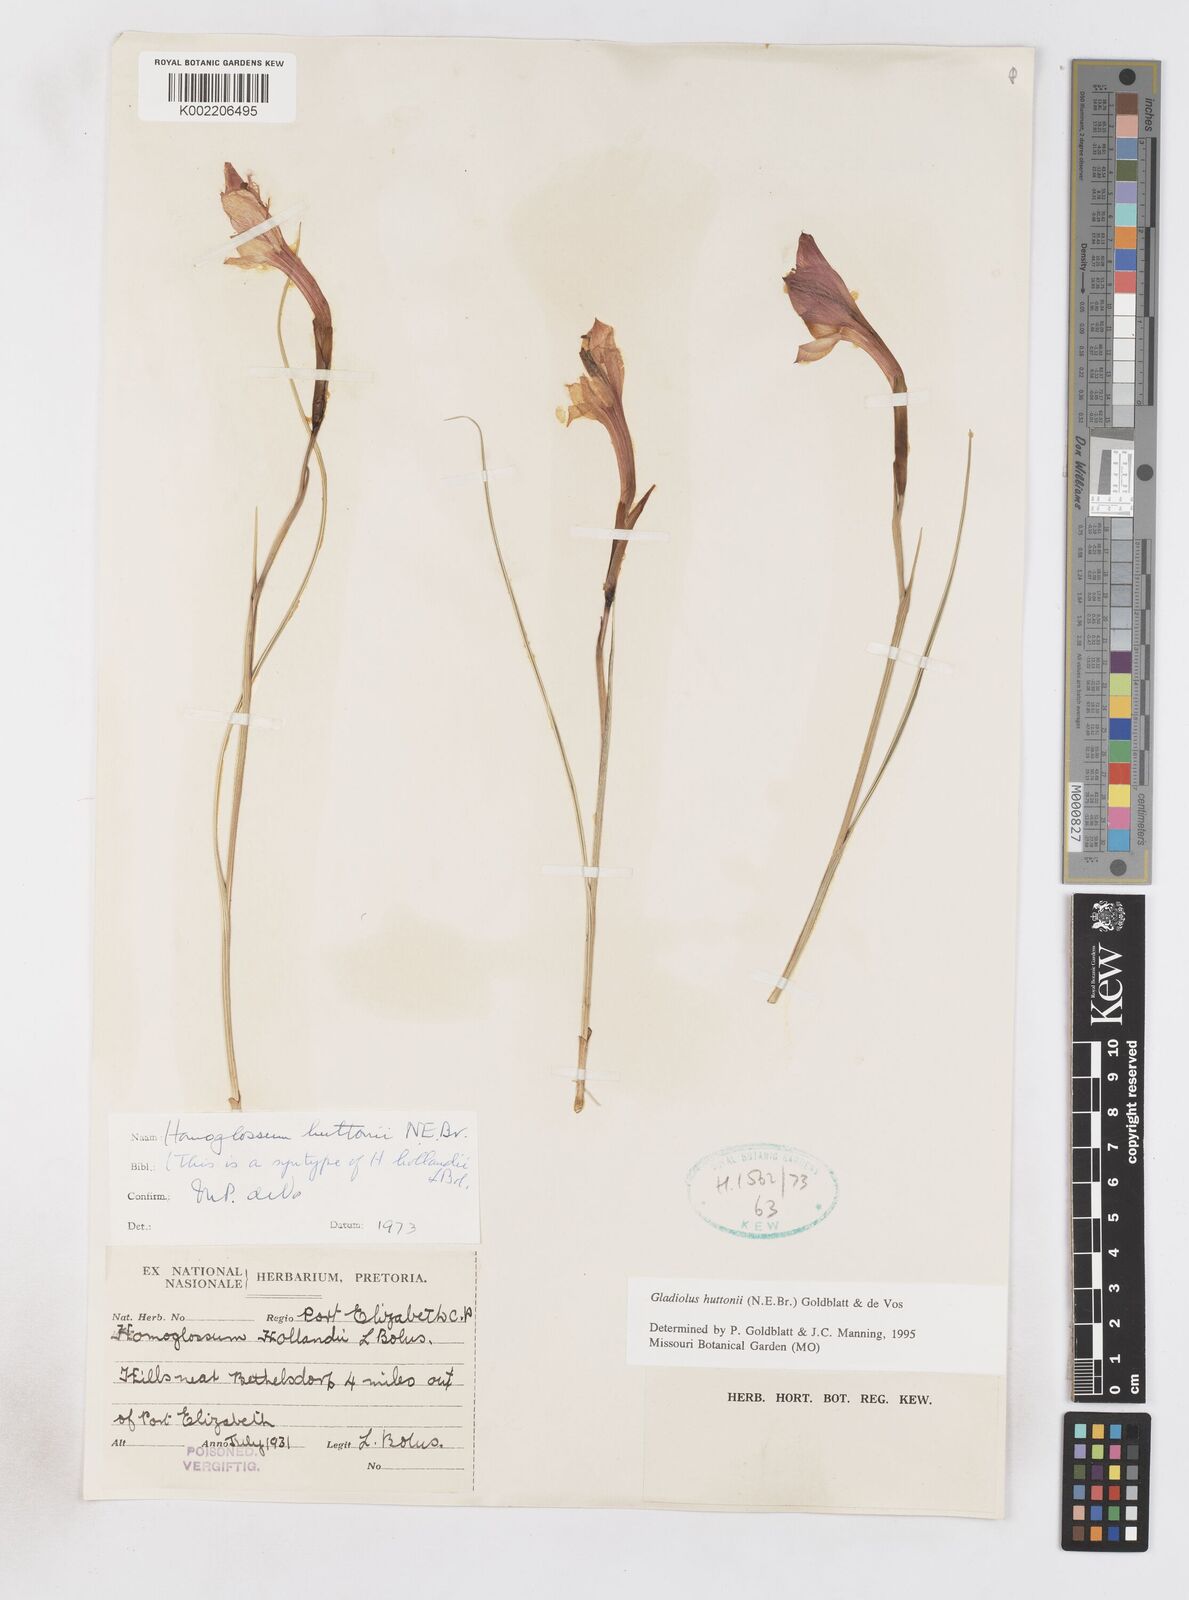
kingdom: Plantae
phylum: Tracheophyta
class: Liliopsida
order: Asparagales
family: Iridaceae
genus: Gladiolus
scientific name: Gladiolus huttonii
